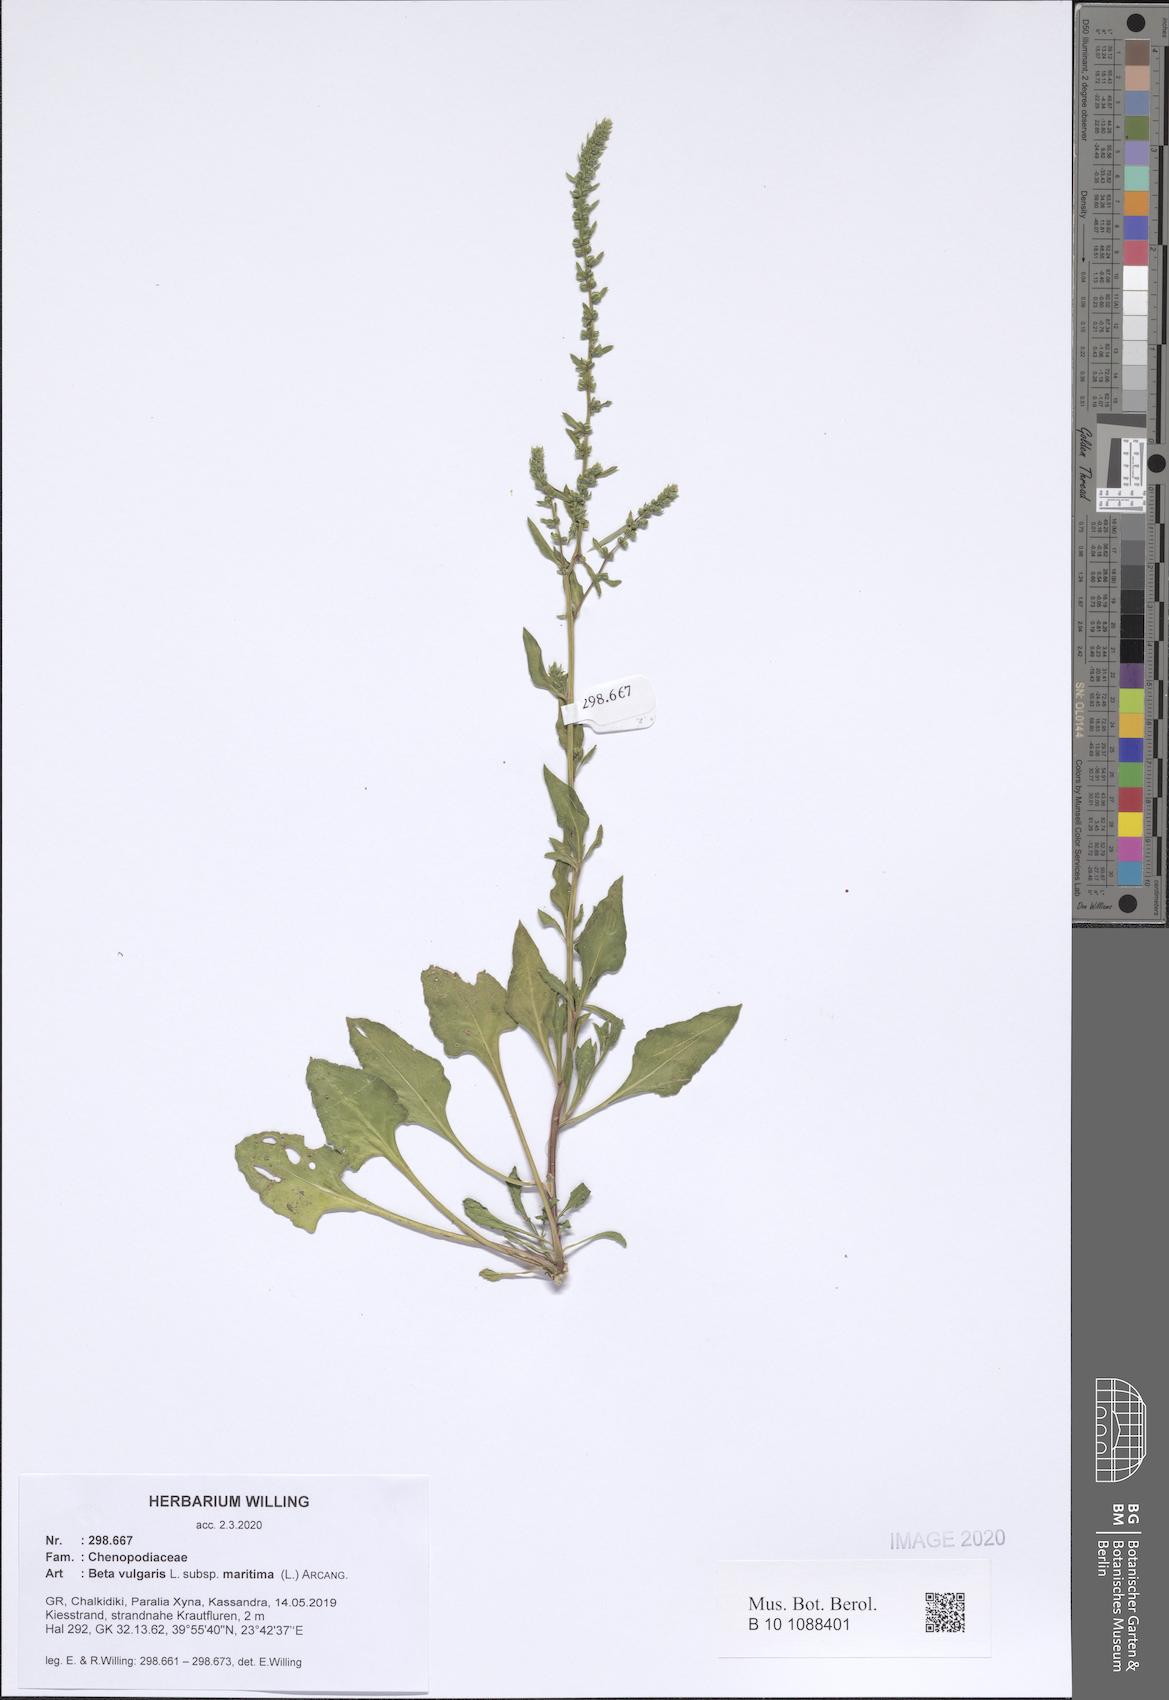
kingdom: Plantae
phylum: Tracheophyta
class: Magnoliopsida
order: Caryophyllales
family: Amaranthaceae
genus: Beta
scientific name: Beta maritima
